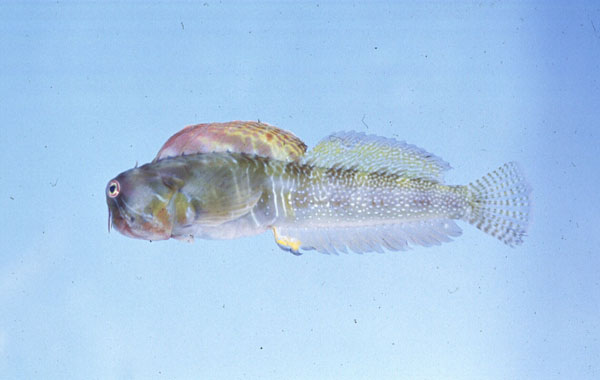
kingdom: Animalia
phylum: Chordata
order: Perciformes
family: Blenniidae
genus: Antennablennius
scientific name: Antennablennius australis
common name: Moustached rockskipper
